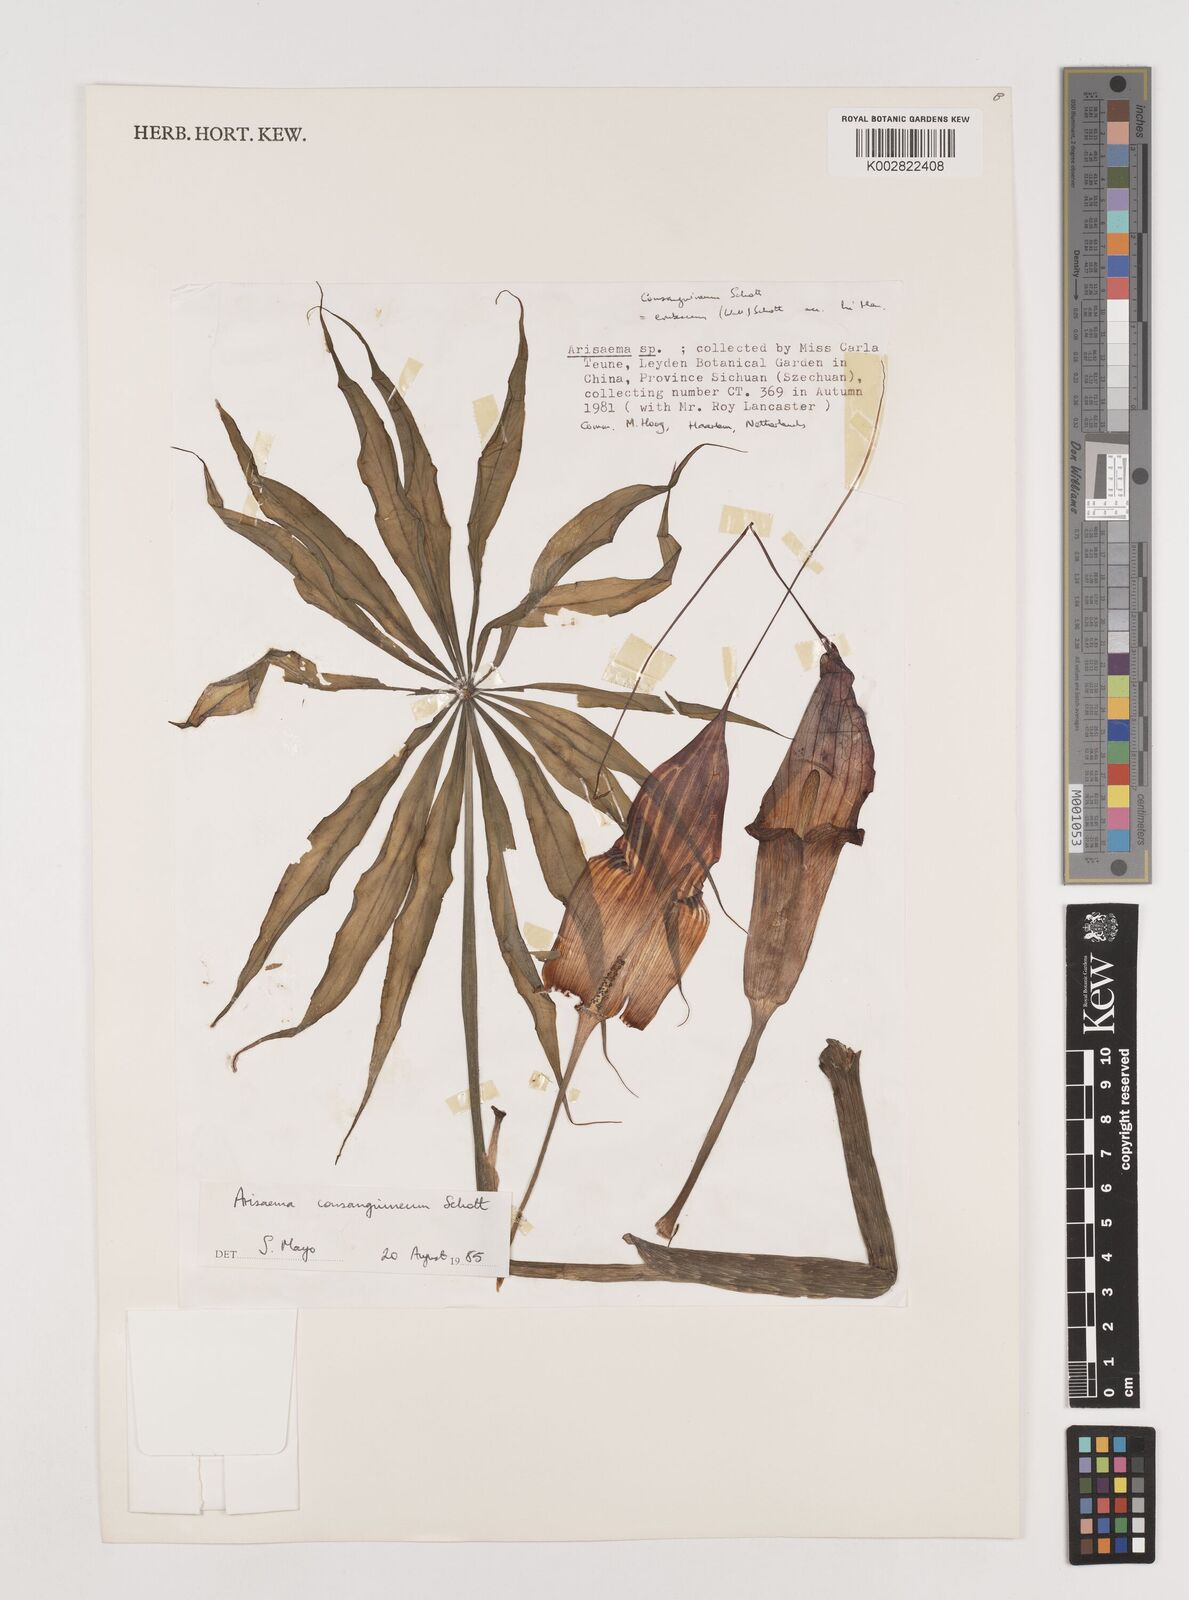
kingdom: Plantae
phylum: Tracheophyta
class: Liliopsida
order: Alismatales
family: Araceae
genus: Arisaema
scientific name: Arisaema erubescens
